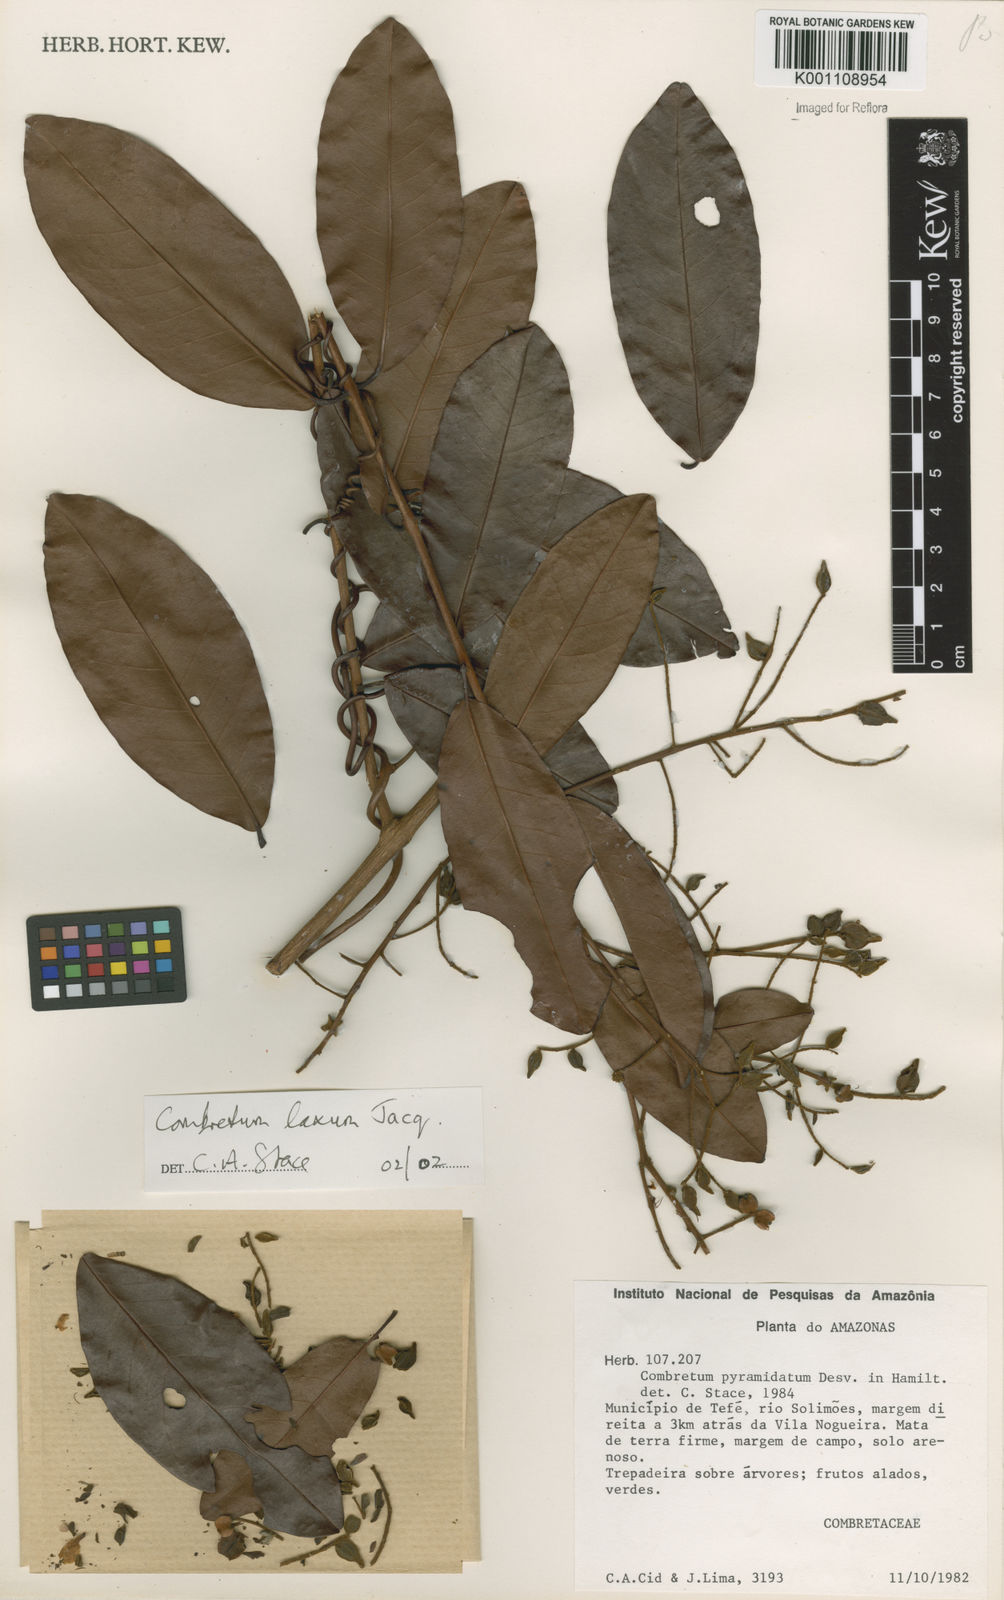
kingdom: Plantae
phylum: Tracheophyta
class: Magnoliopsida
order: Myrtales
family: Combretaceae
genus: Combretum
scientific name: Combretum laxum
